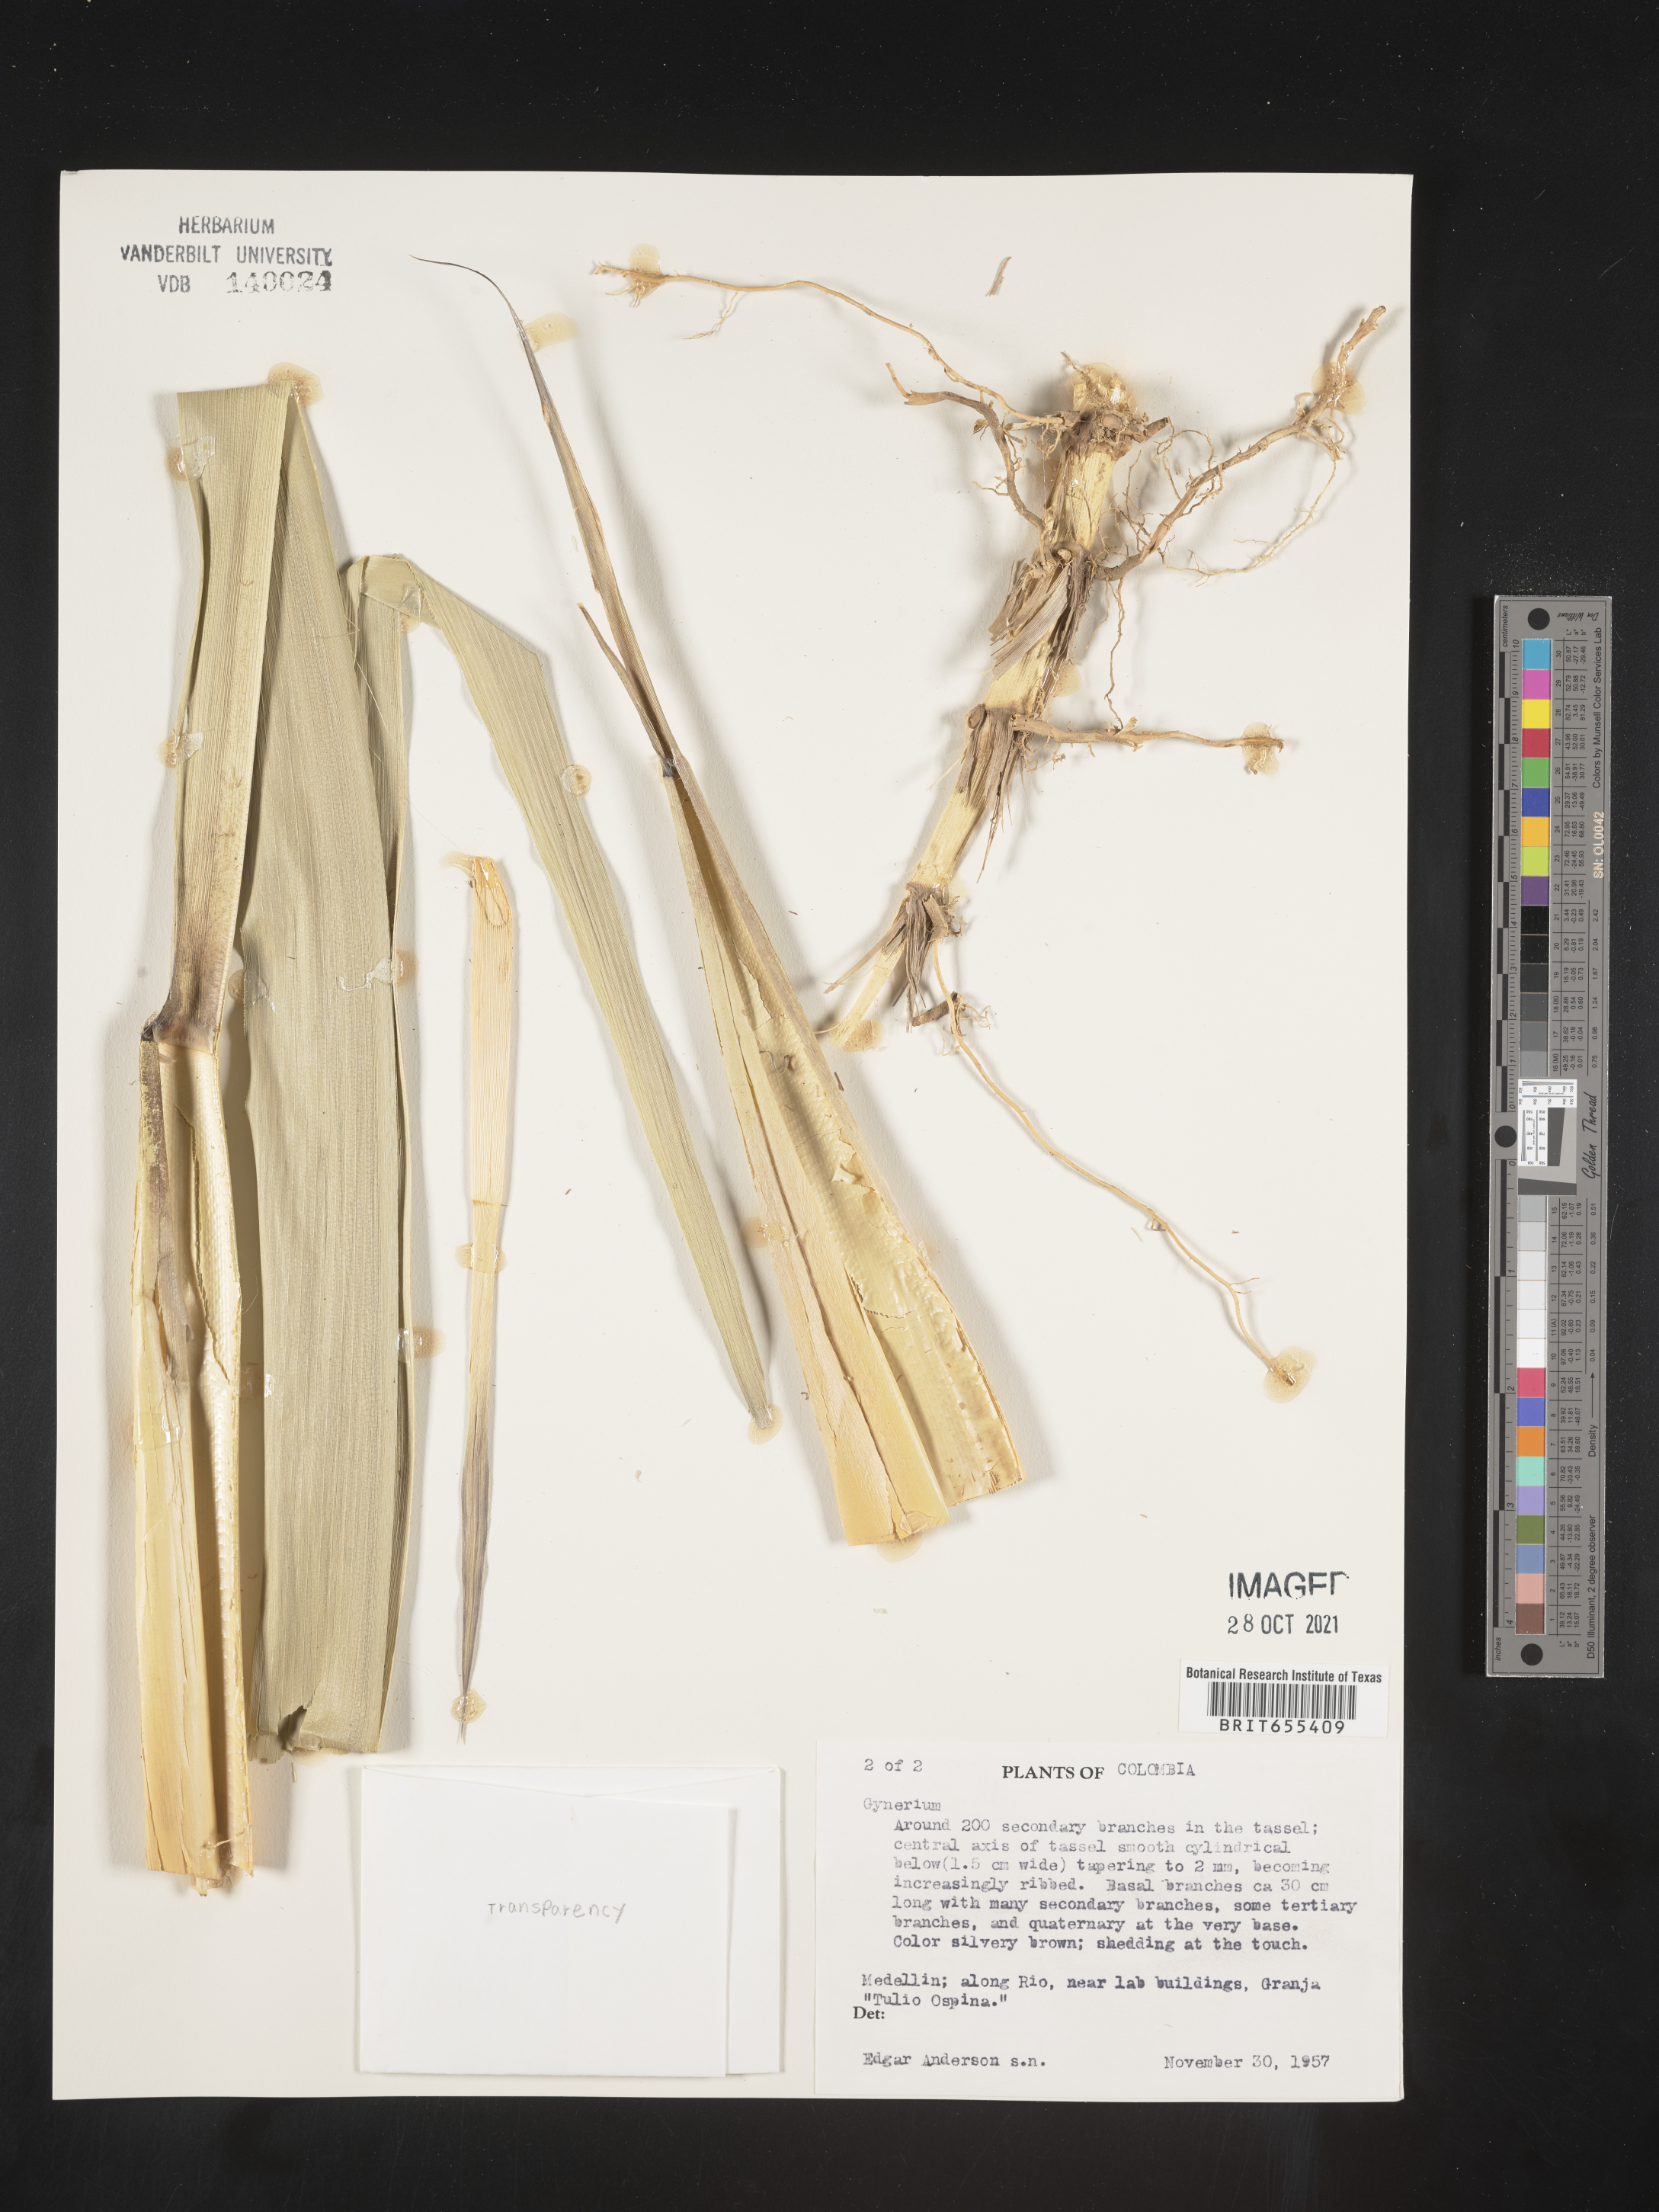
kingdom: Plantae
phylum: Tracheophyta
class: Liliopsida
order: Poales
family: Poaceae
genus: Gynerium
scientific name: Gynerium
